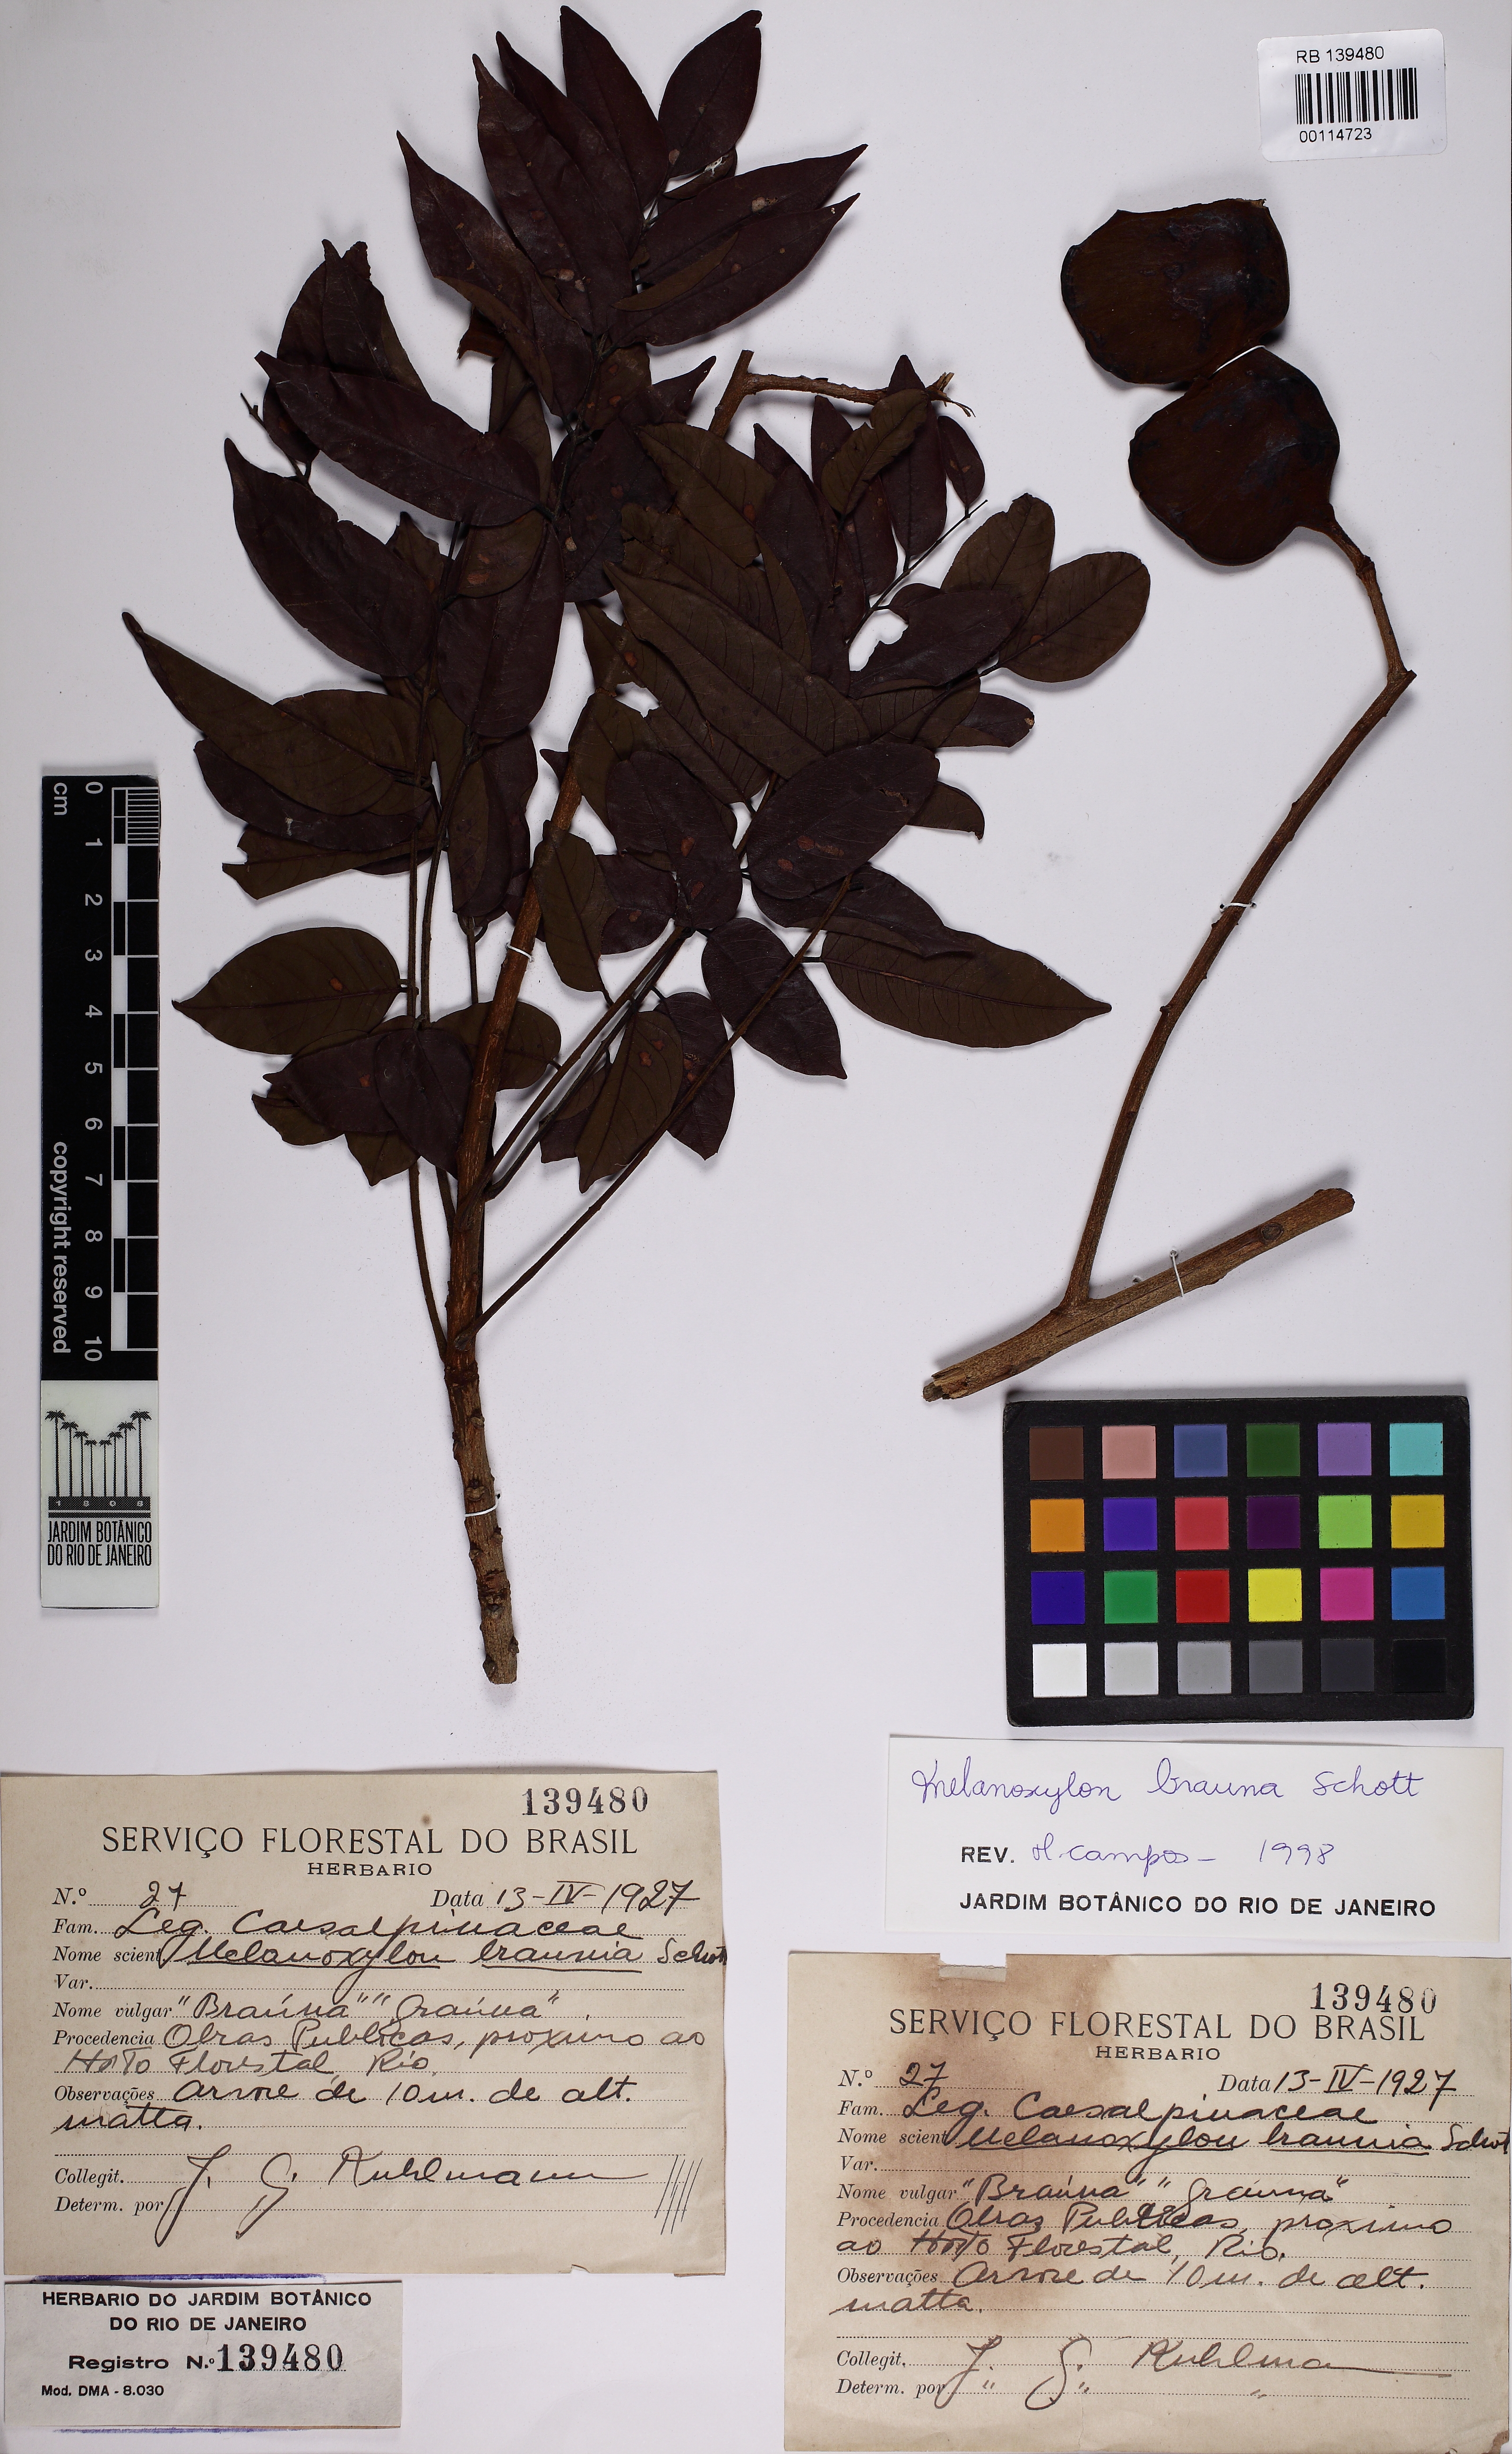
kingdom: Plantae
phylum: Tracheophyta
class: Magnoliopsida
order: Fabales
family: Fabaceae
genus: Melanoxylon
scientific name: Melanoxylon brauna
